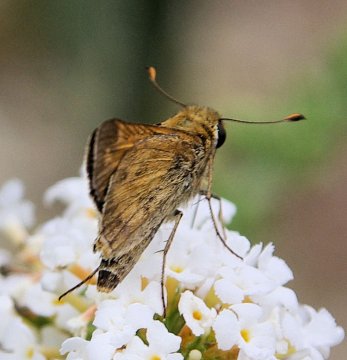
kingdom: Animalia
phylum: Arthropoda
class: Insecta
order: Lepidoptera
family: Hesperiidae
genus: Hylephila
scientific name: Hylephila phyleus
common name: Fiery Skipper
